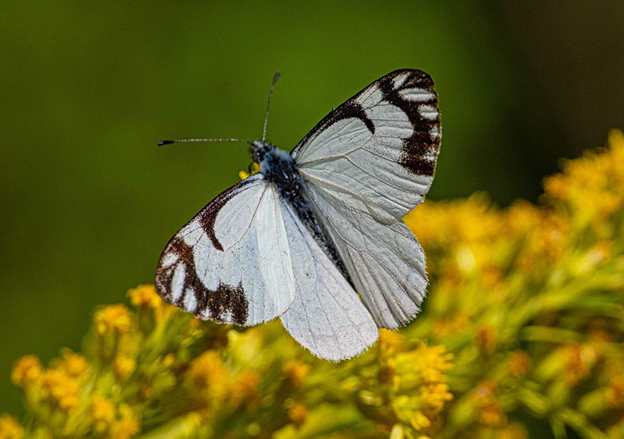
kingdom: Animalia
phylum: Arthropoda
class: Insecta
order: Lepidoptera
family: Pieridae
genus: Neophasia
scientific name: Neophasia menapia
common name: Pine White
